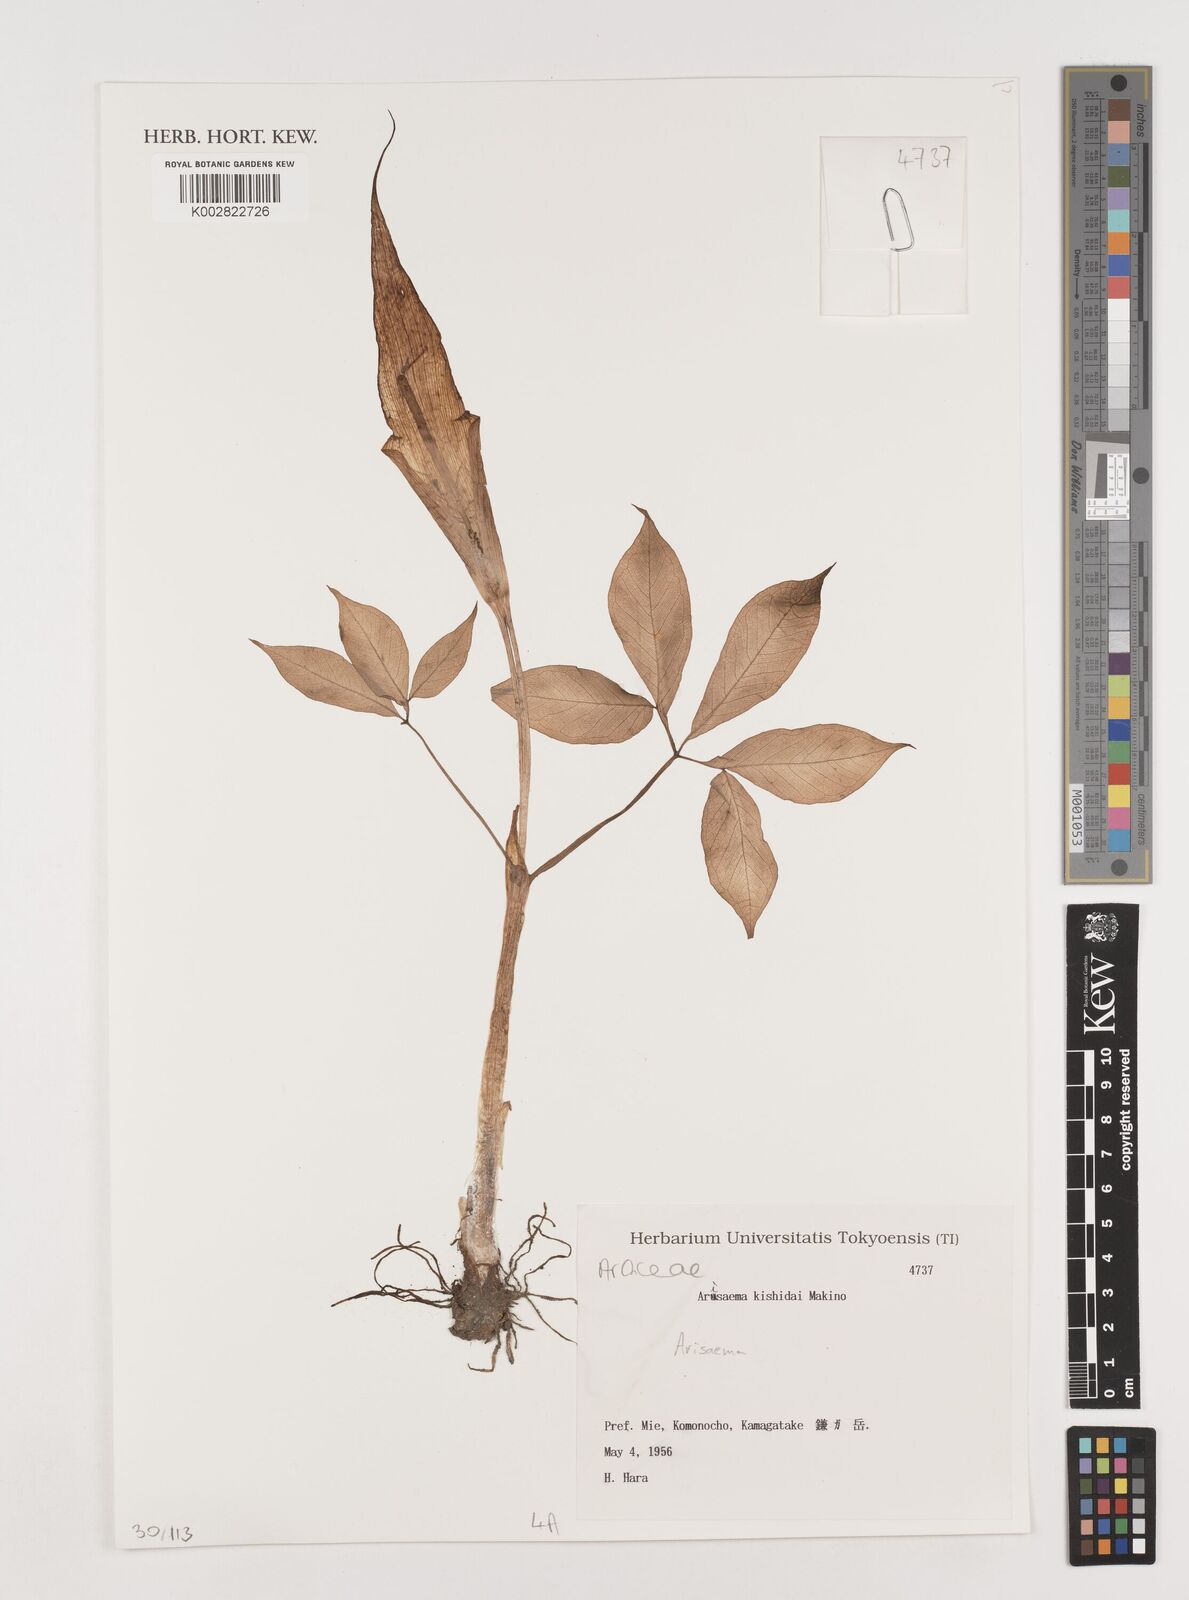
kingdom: Plantae
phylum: Tracheophyta
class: Liliopsida
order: Alismatales
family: Araceae
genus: Arisaema
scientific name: Arisaema
